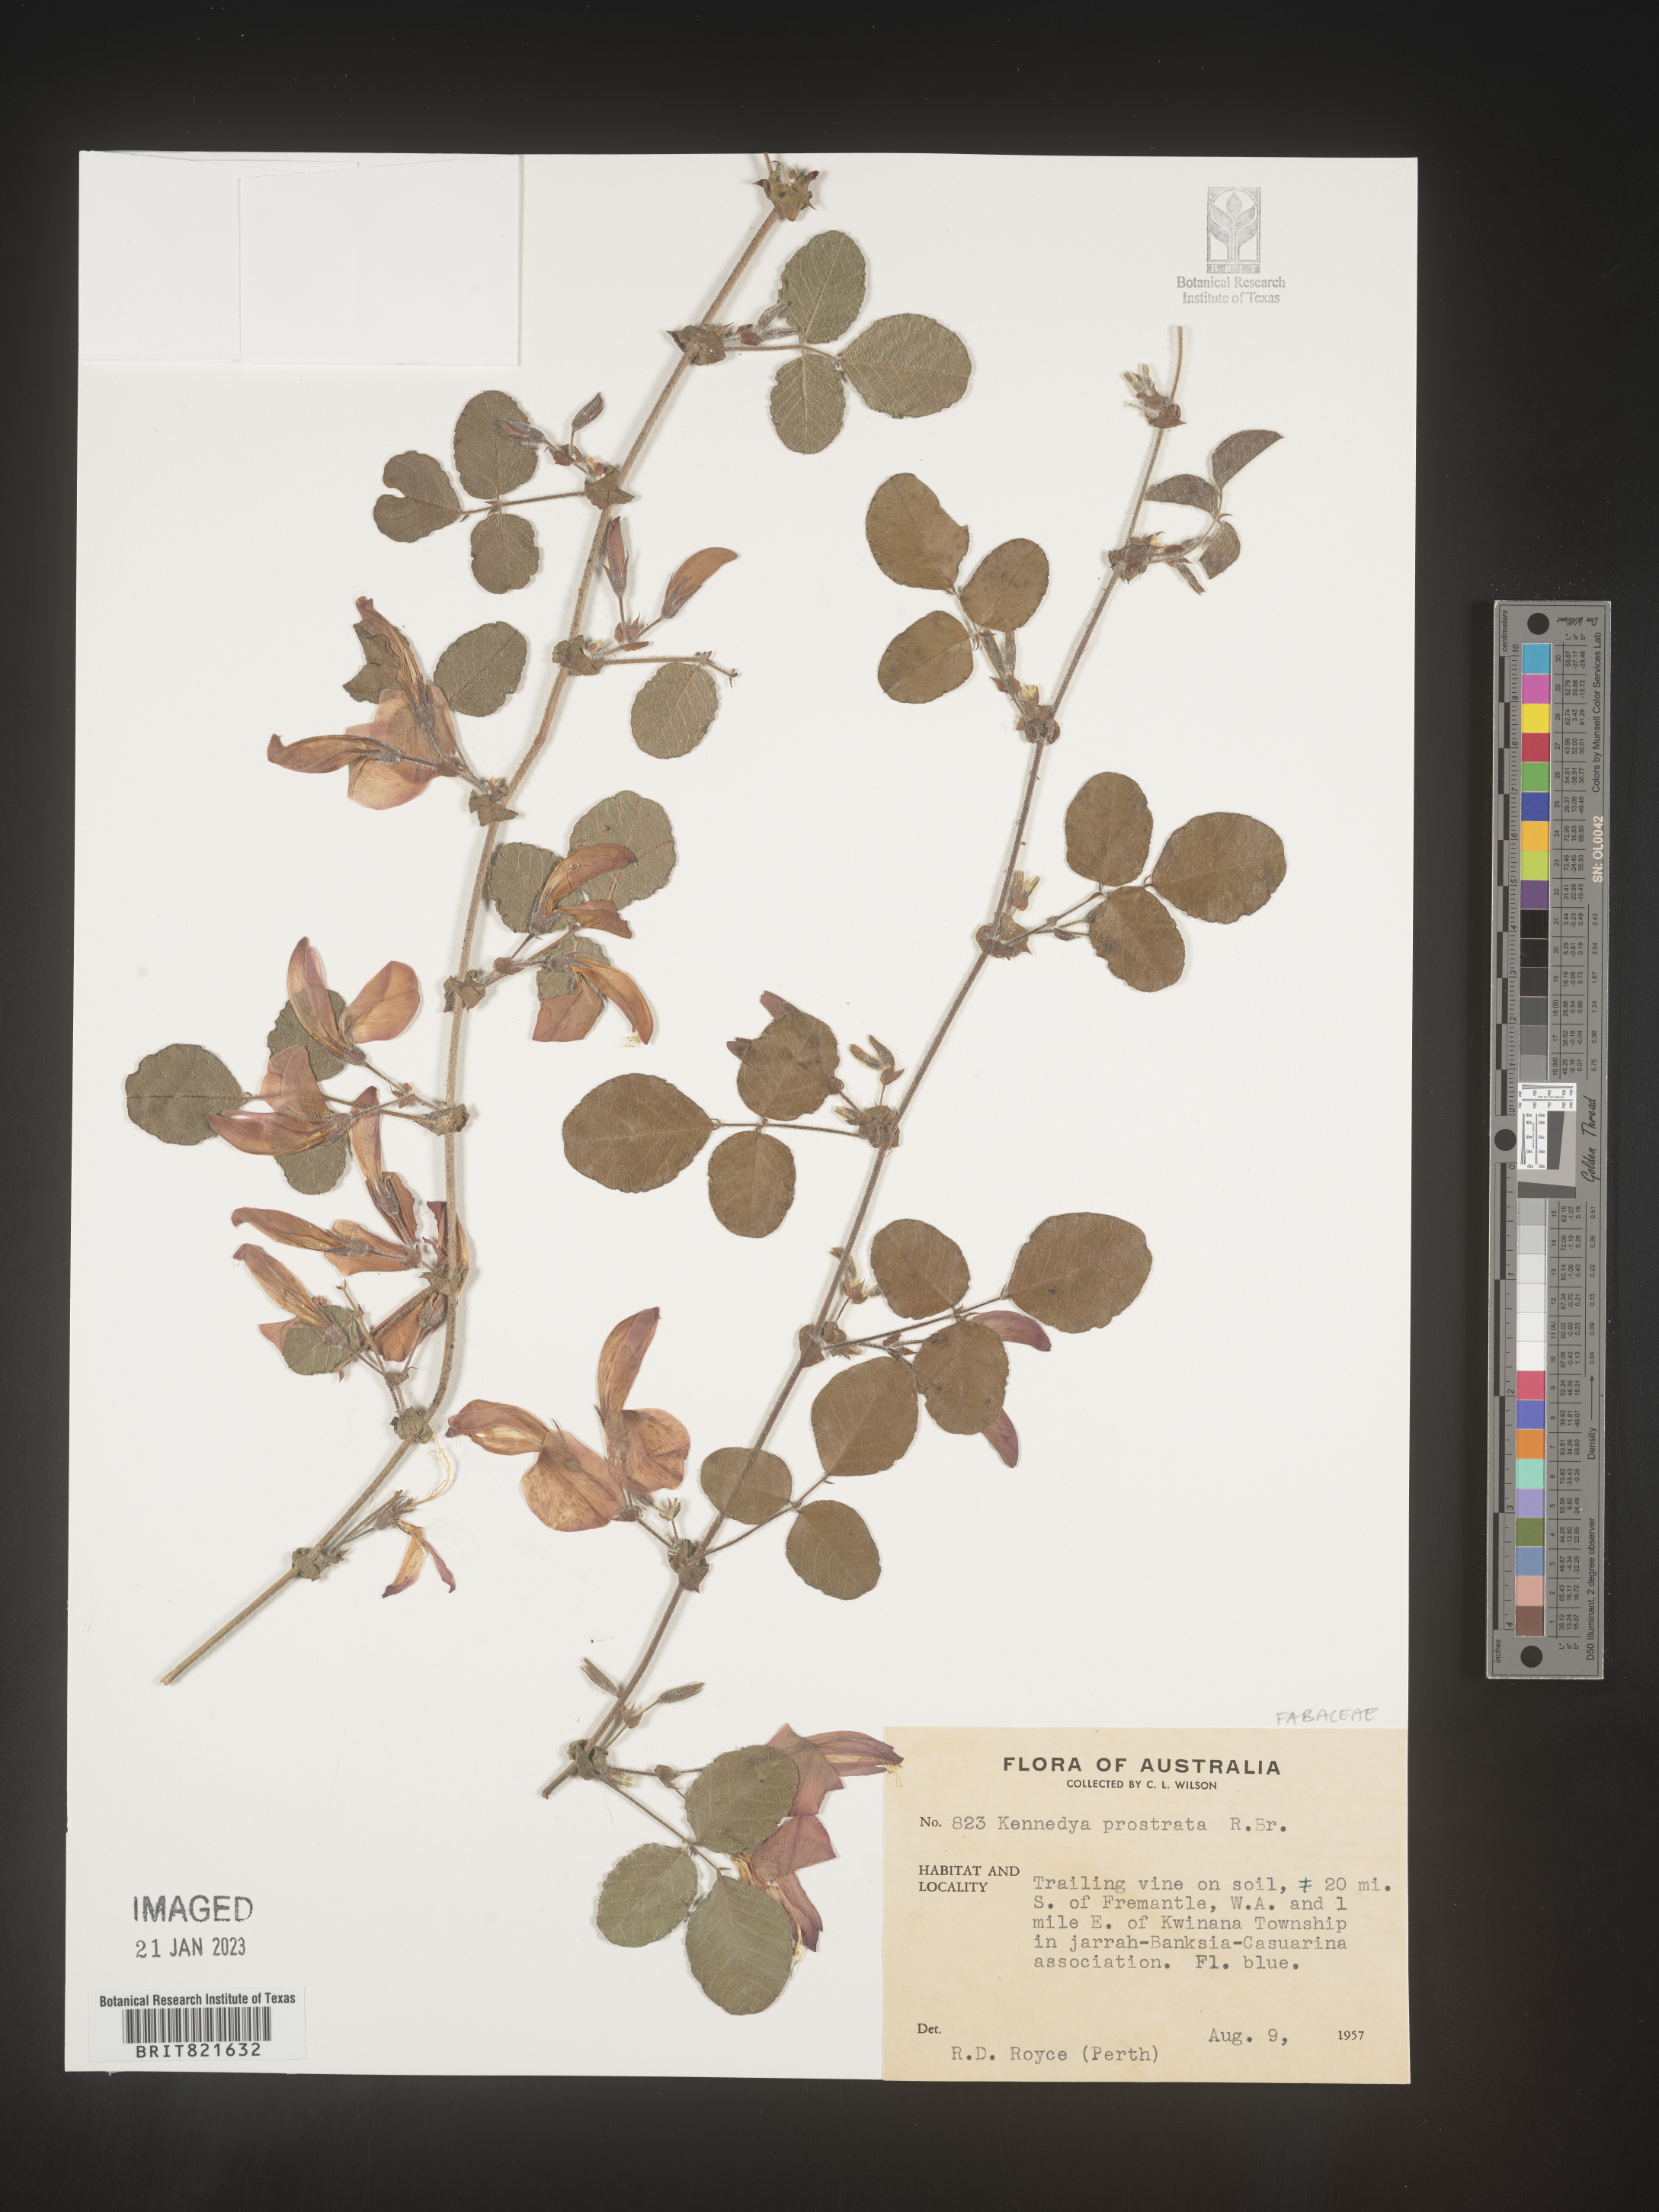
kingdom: Plantae
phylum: Tracheophyta
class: Magnoliopsida
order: Fabales
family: Fabaceae
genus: Kennedya
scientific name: Kennedya
